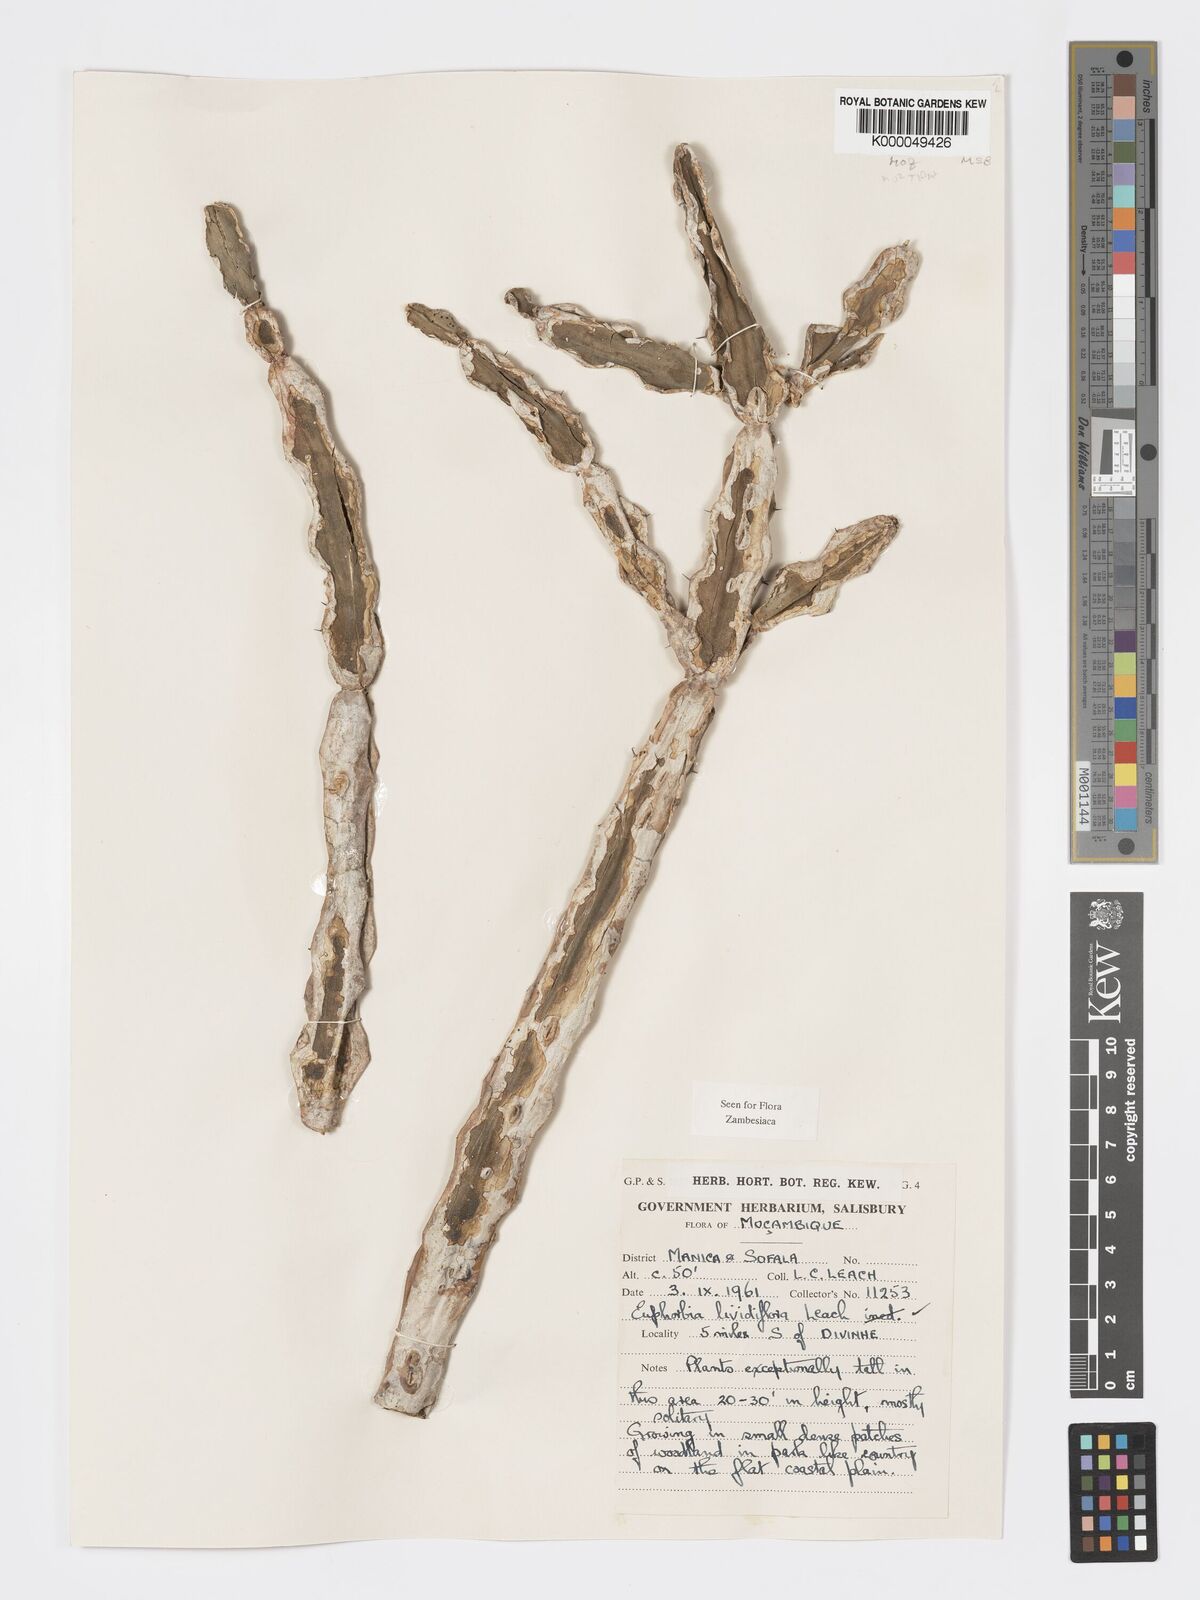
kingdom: Plantae
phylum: Tracheophyta
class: Magnoliopsida
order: Malpighiales
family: Euphorbiaceae
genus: Euphorbia
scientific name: Euphorbia lividiflora
